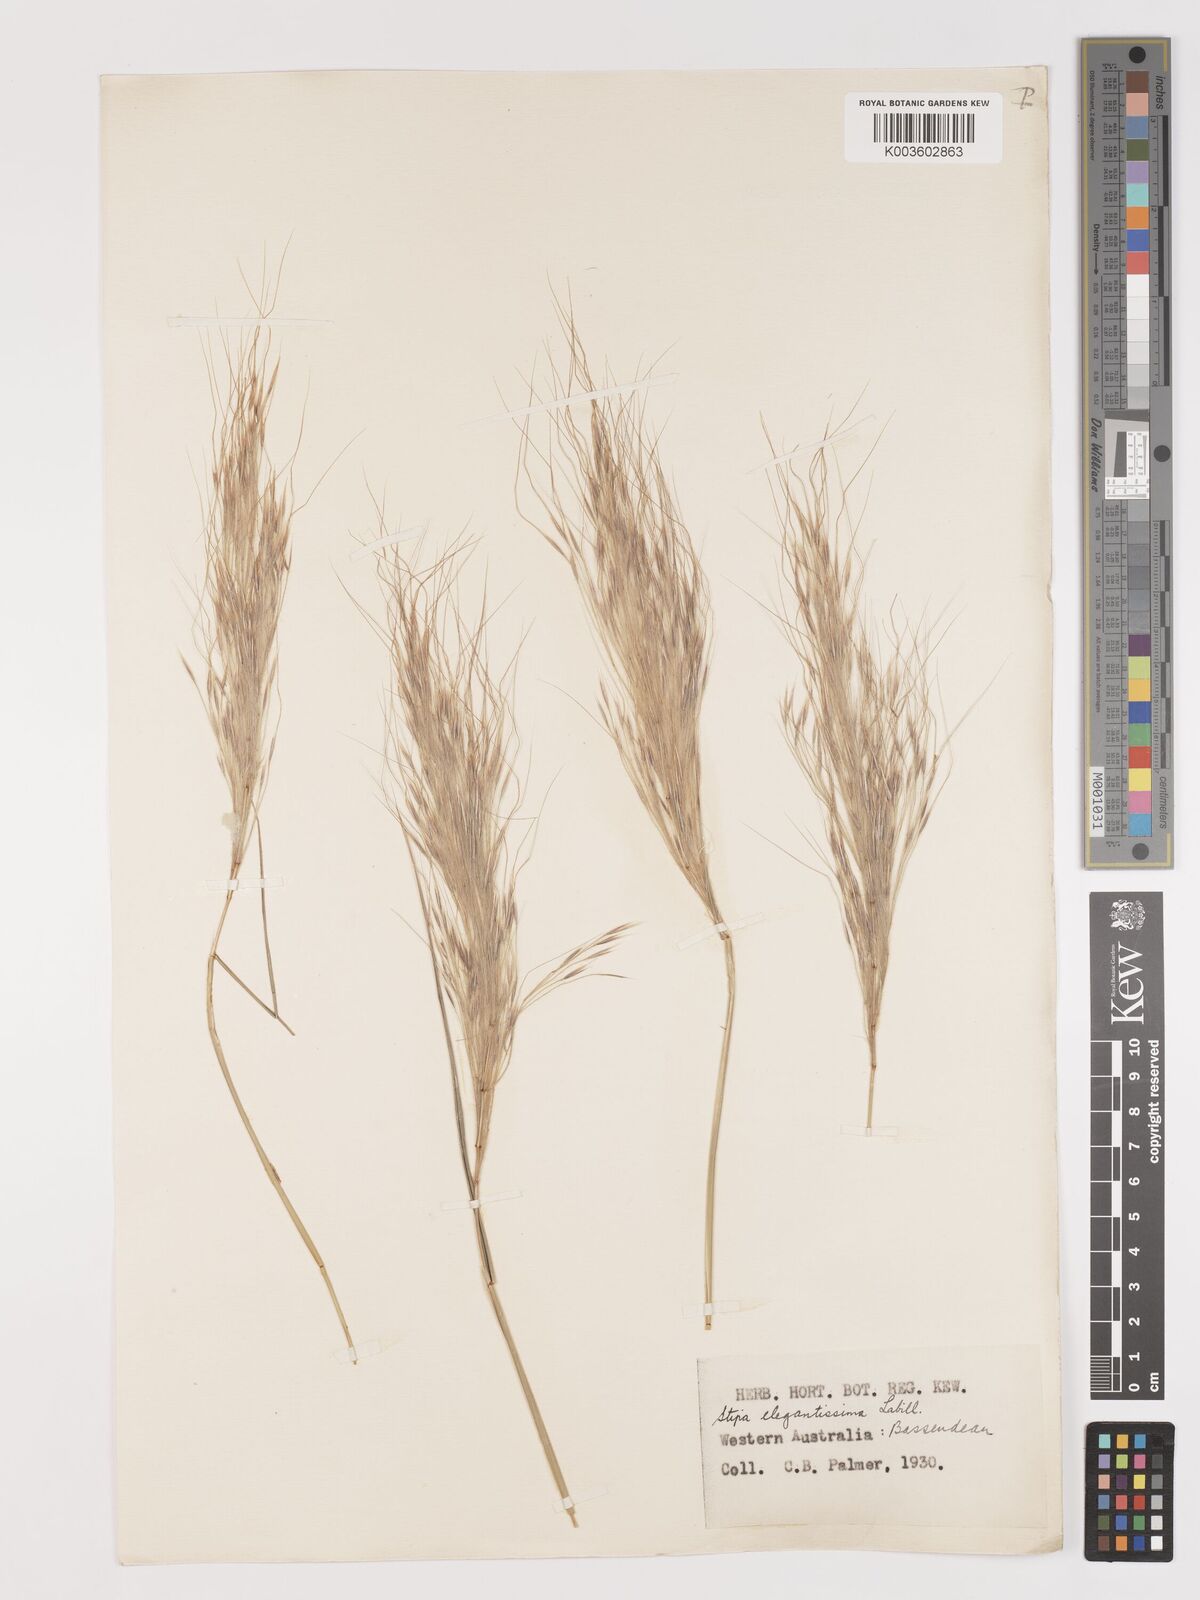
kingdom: Plantae
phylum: Tracheophyta
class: Liliopsida
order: Poales
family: Poaceae
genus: Austrostipa
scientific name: Austrostipa elegantissima
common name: Feather spear grass
